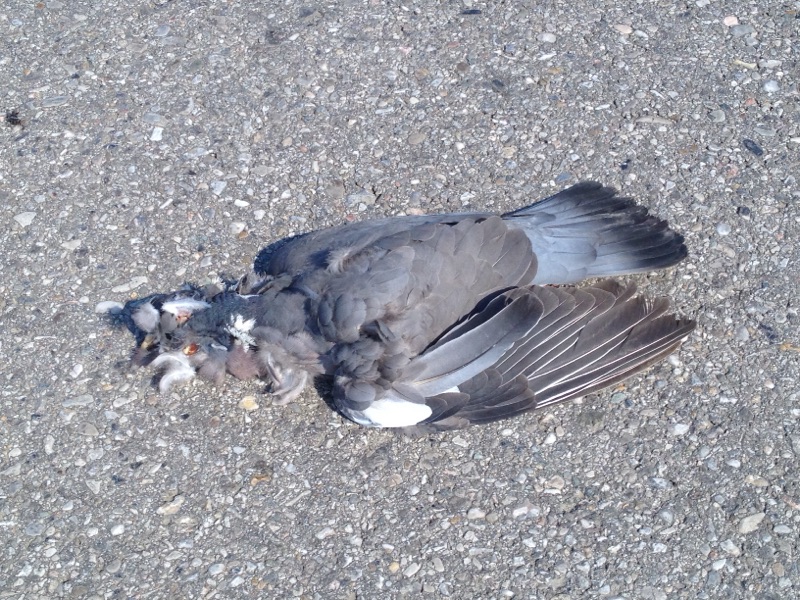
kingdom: Animalia
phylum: Chordata
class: Aves
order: Columbiformes
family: Columbidae
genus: Columba
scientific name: Columba palumbus
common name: Common wood pigeon
